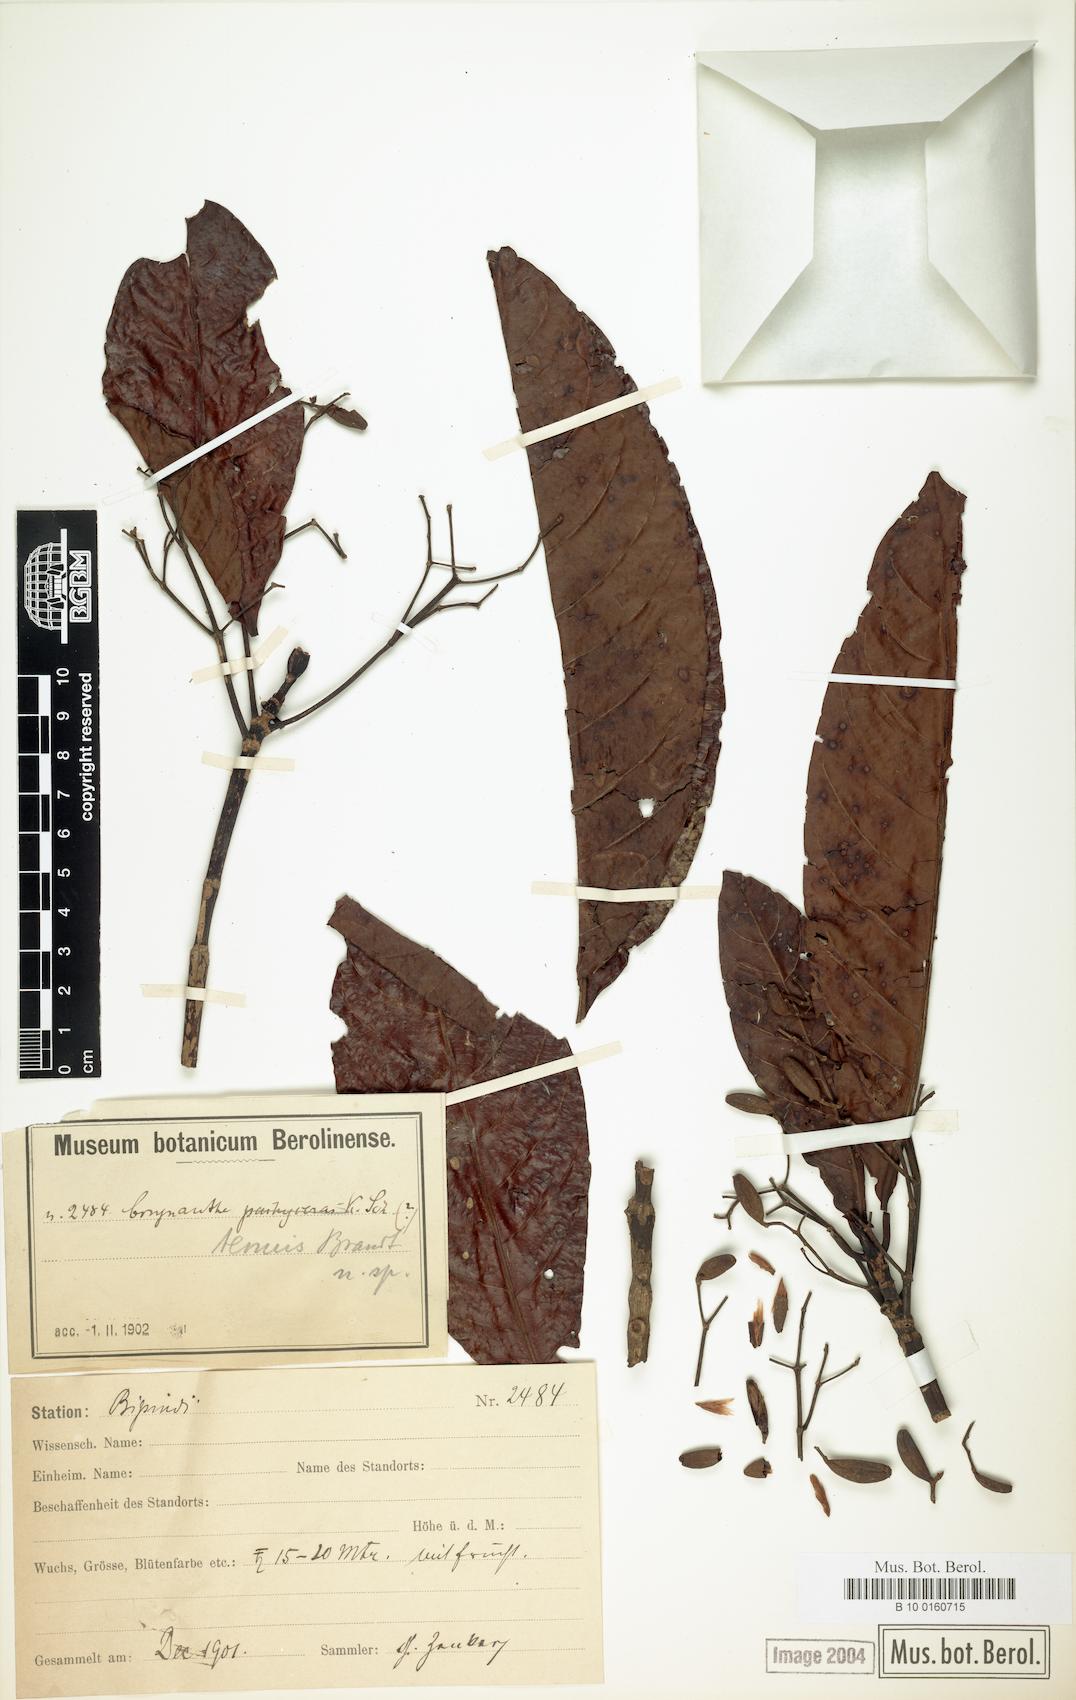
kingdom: Plantae
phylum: Tracheophyta
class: Magnoliopsida
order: Gentianales
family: Rubiaceae
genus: Corynanthe
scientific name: Corynanthe talbotii
